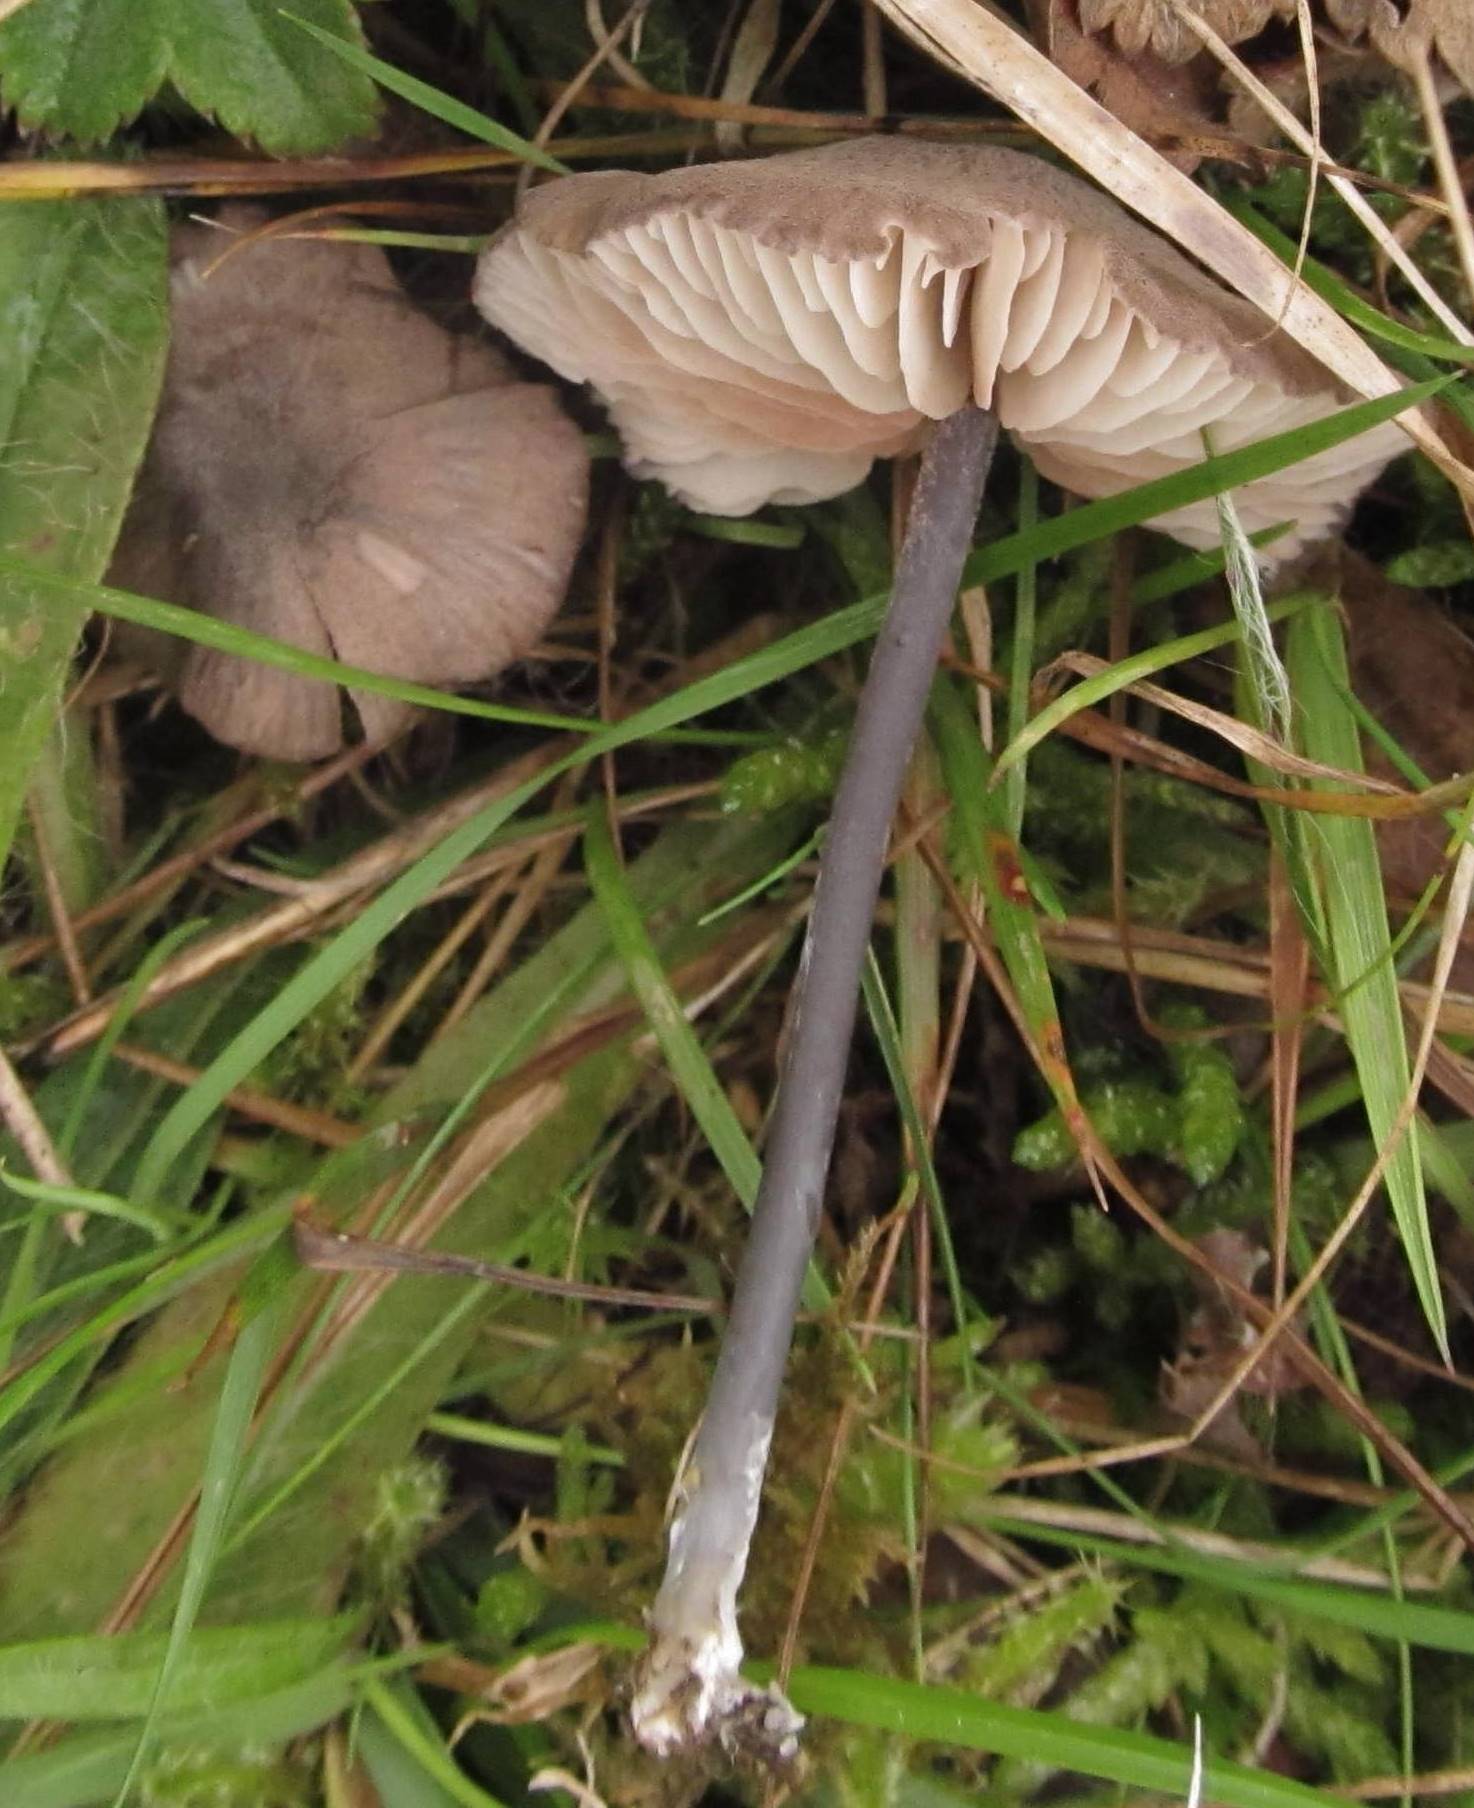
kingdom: Fungi
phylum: Basidiomycota
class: Agaricomycetes
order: Agaricales
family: Entolomataceae
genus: Entoloma
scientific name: Entoloma poliopus
